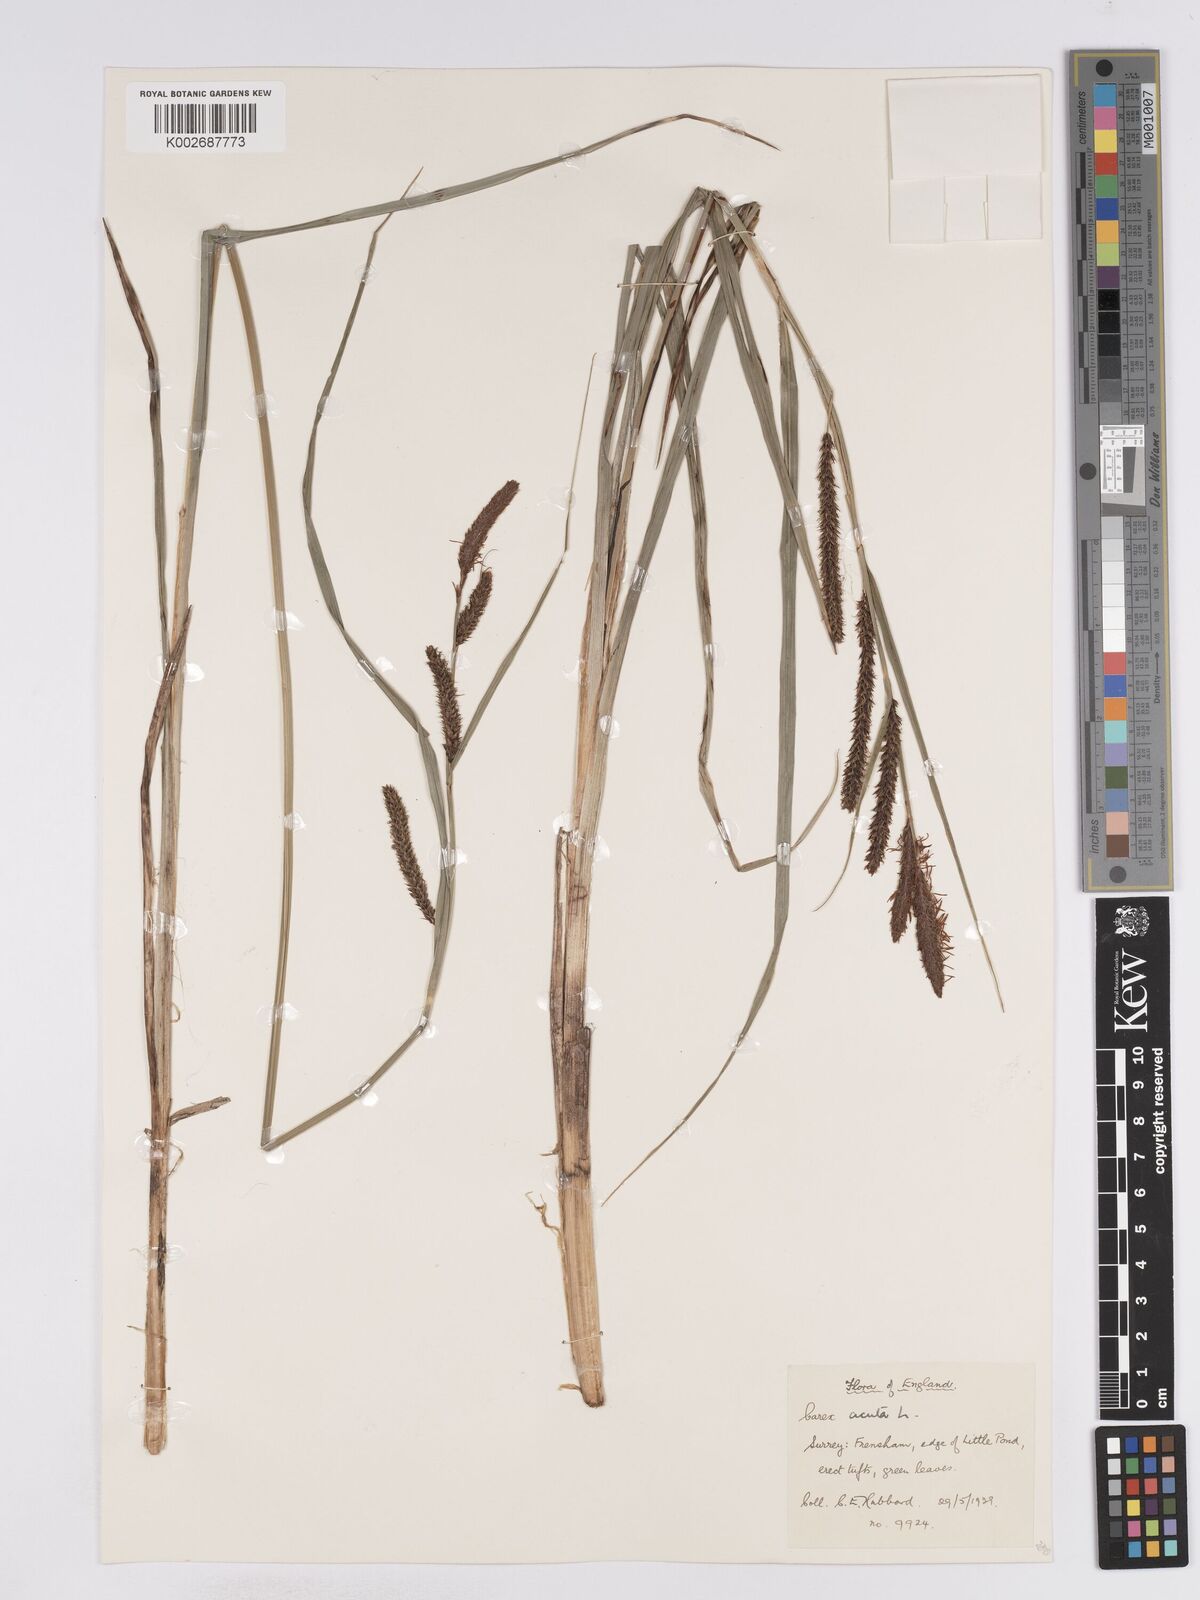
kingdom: Plantae
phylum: Tracheophyta
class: Liliopsida
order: Poales
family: Cyperaceae
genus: Carex
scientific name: Carex acuta
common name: Slender tufted-sedge
